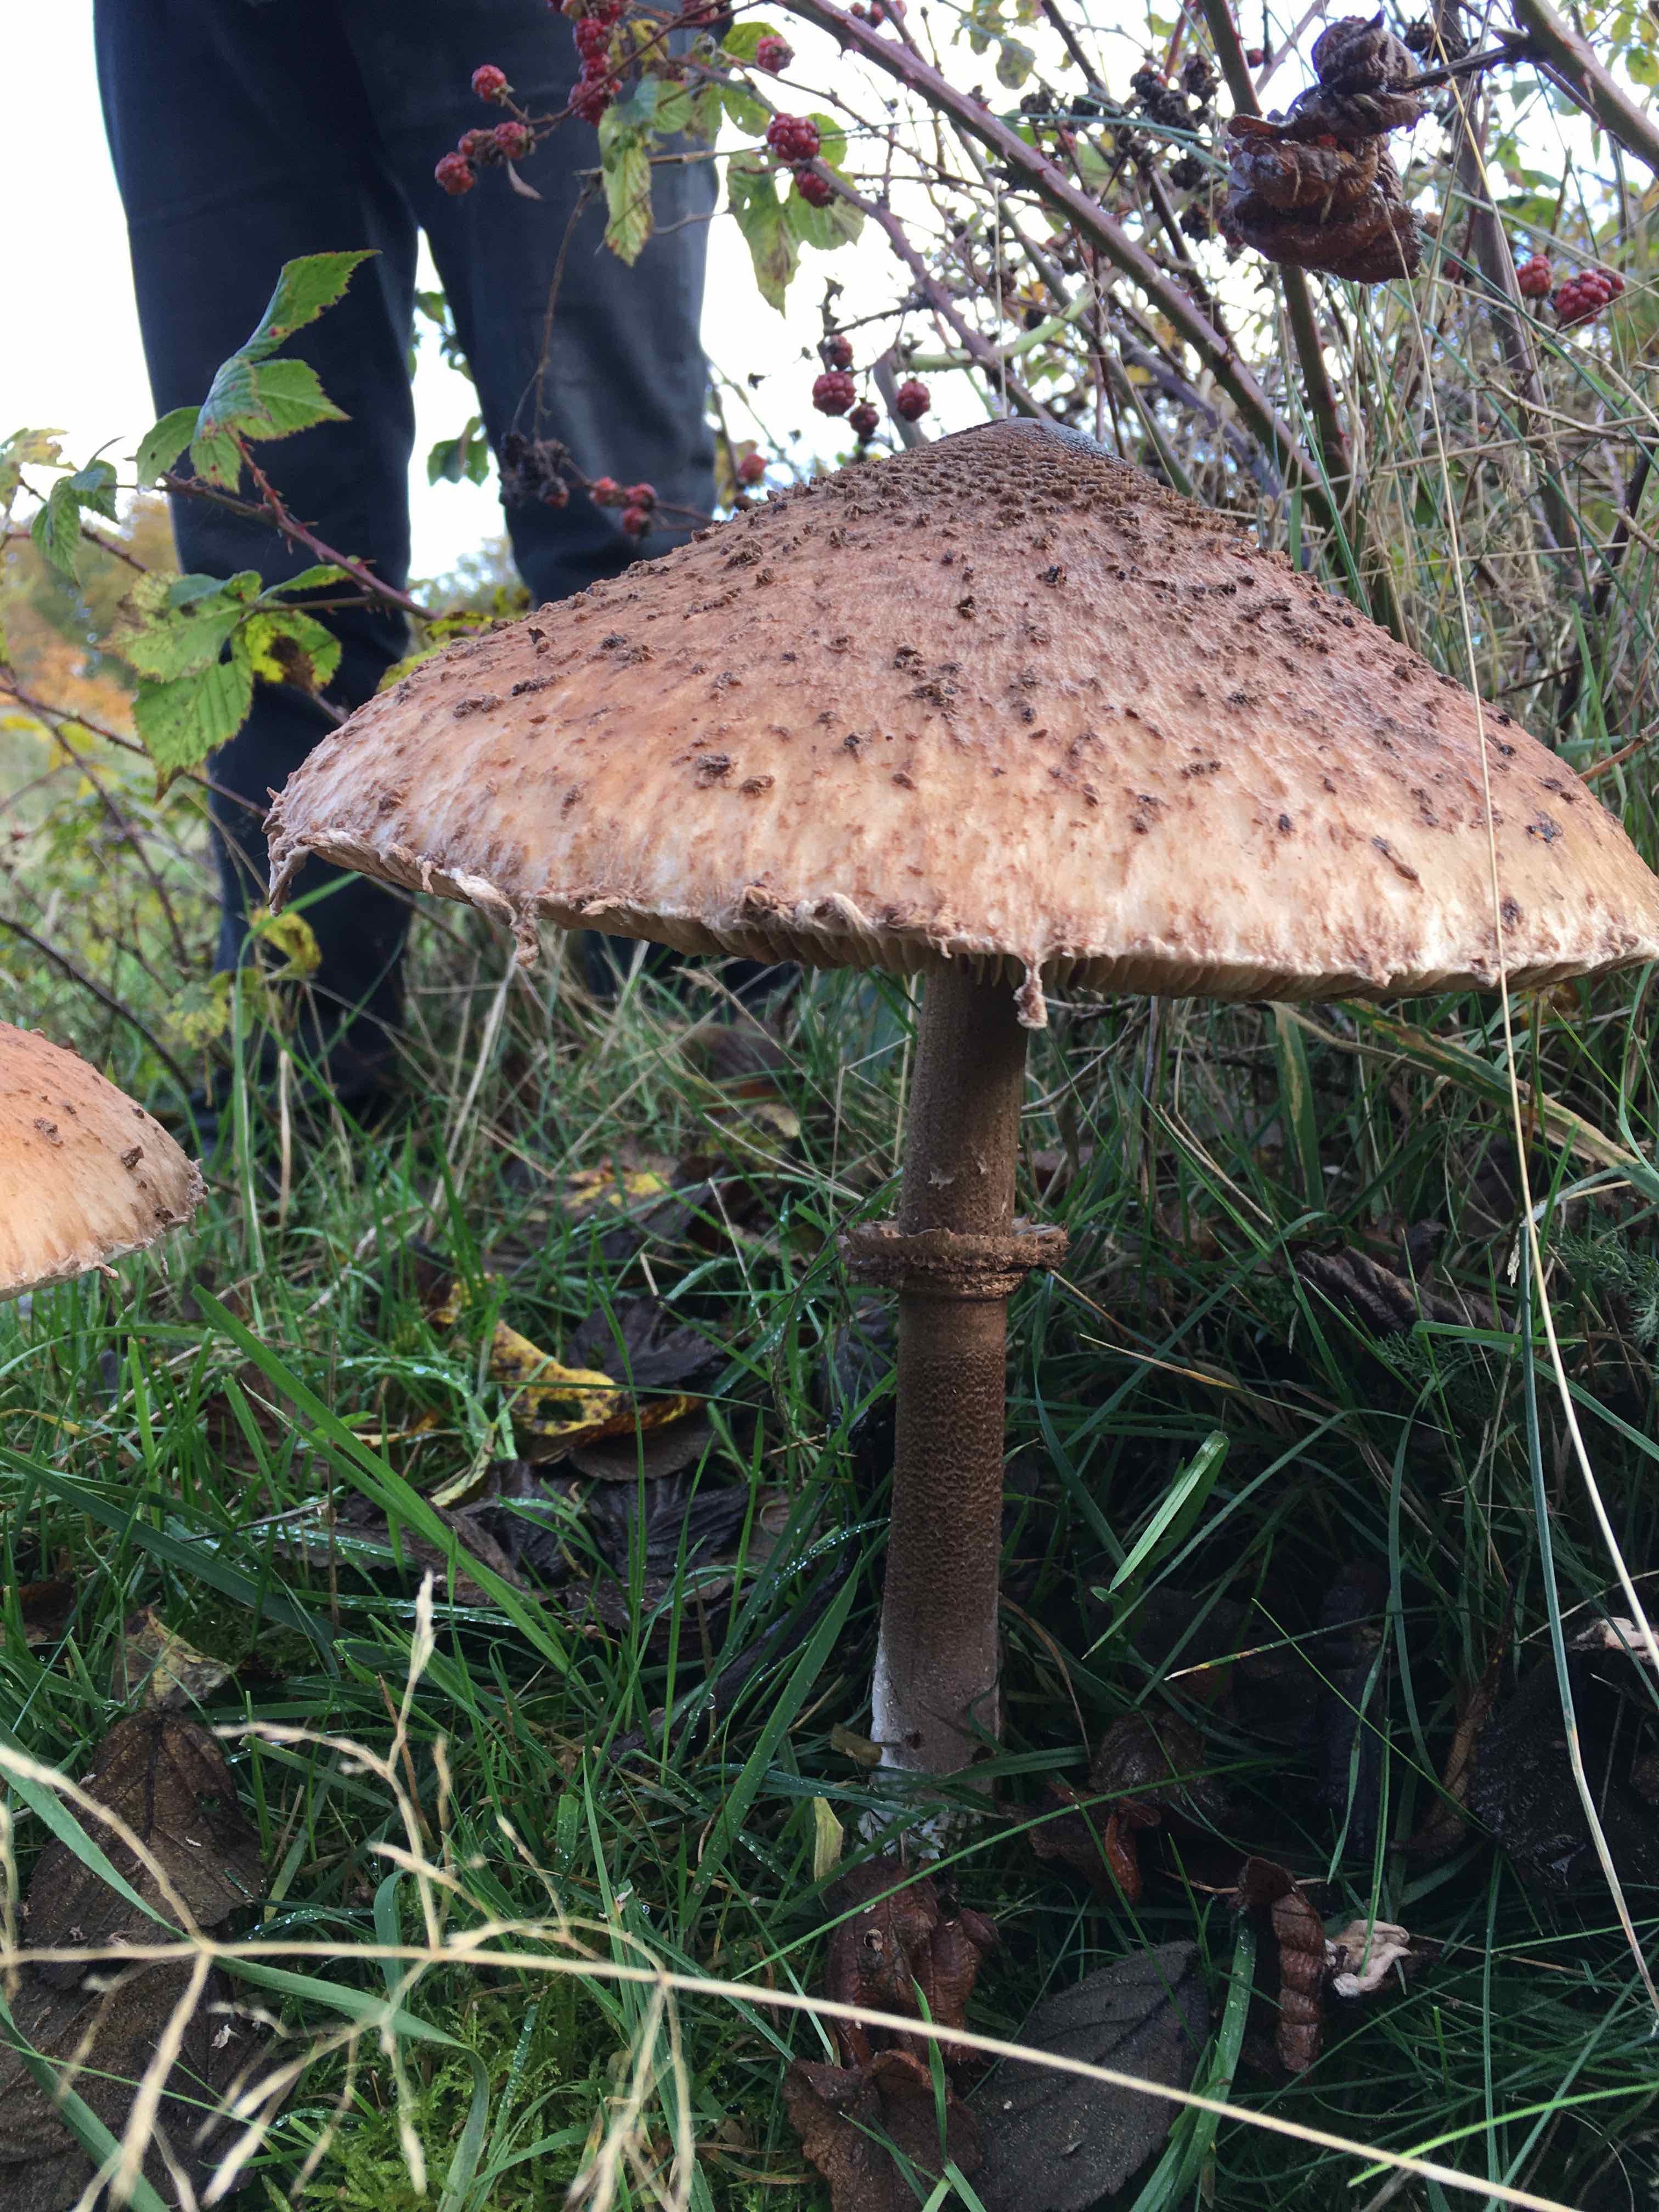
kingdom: Fungi
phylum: Basidiomycota
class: Agaricomycetes
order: Agaricales
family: Agaricaceae
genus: Macrolepiota
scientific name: Macrolepiota procera
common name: stor kæmpeparasolhat
